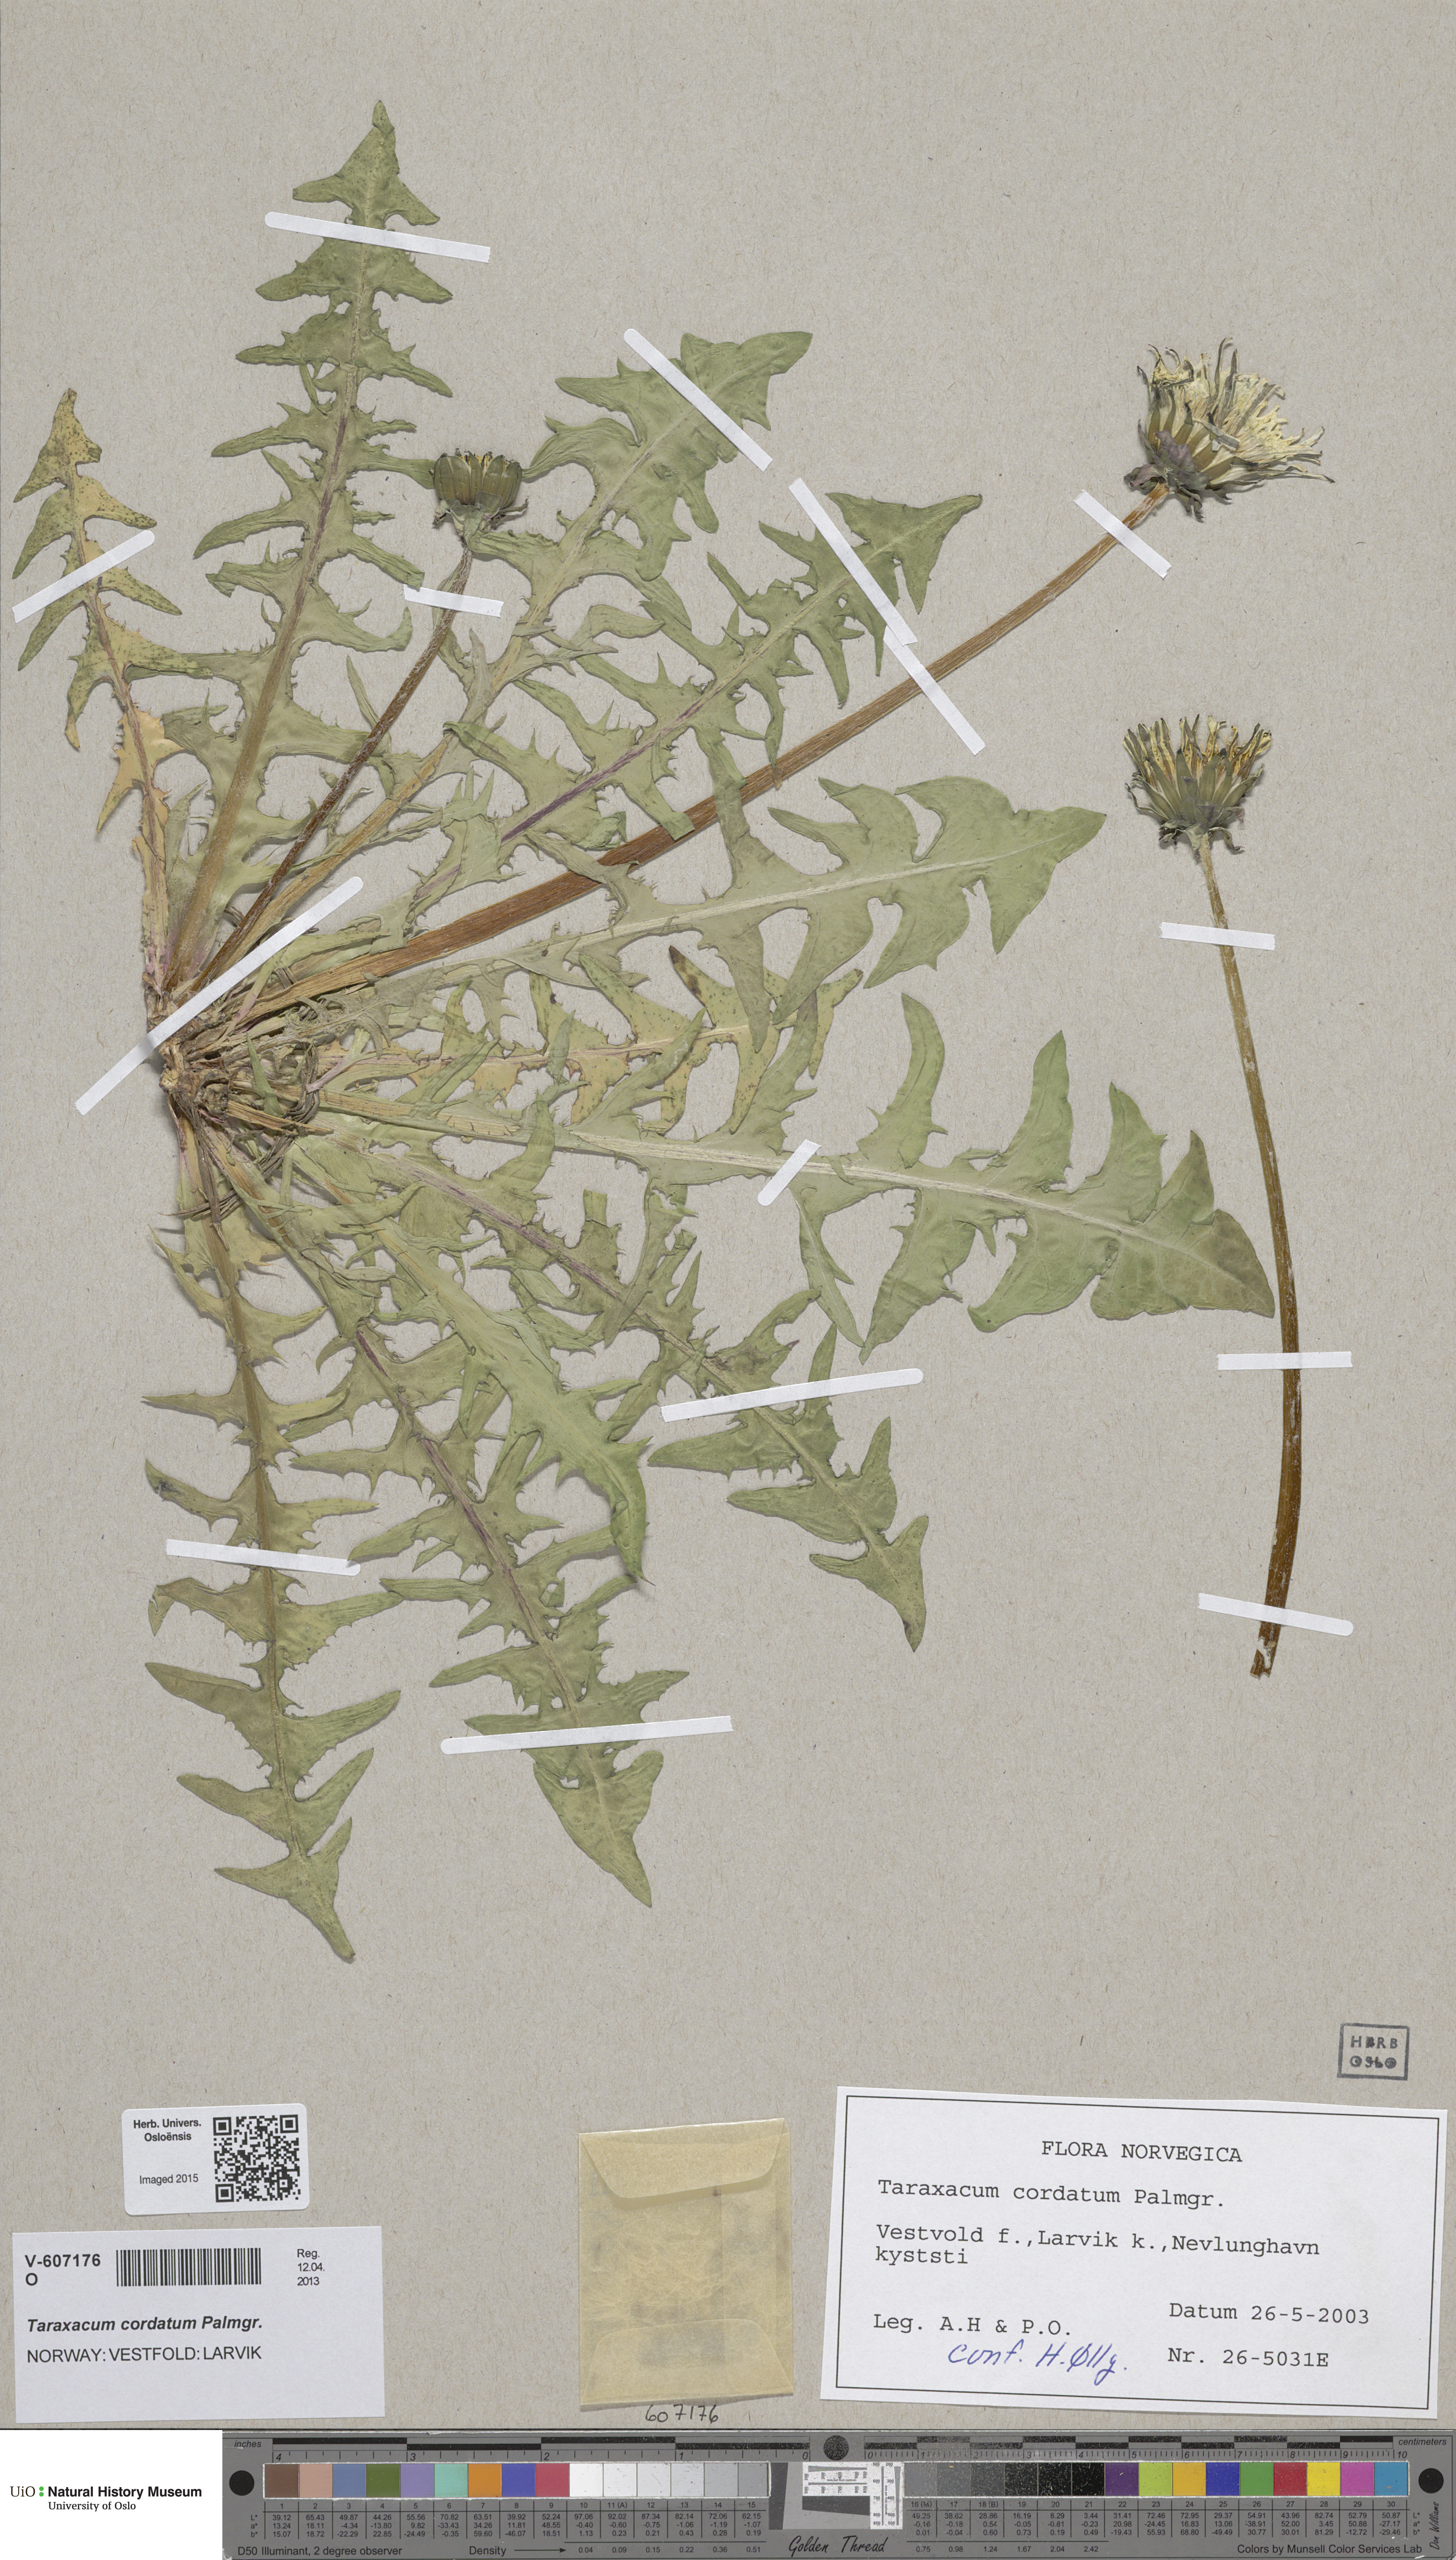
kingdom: Plantae
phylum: Tracheophyta
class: Magnoliopsida
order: Asterales
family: Asteraceae
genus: Taraxacum
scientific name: Taraxacum cordatum
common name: Entire-lobed dandelion
